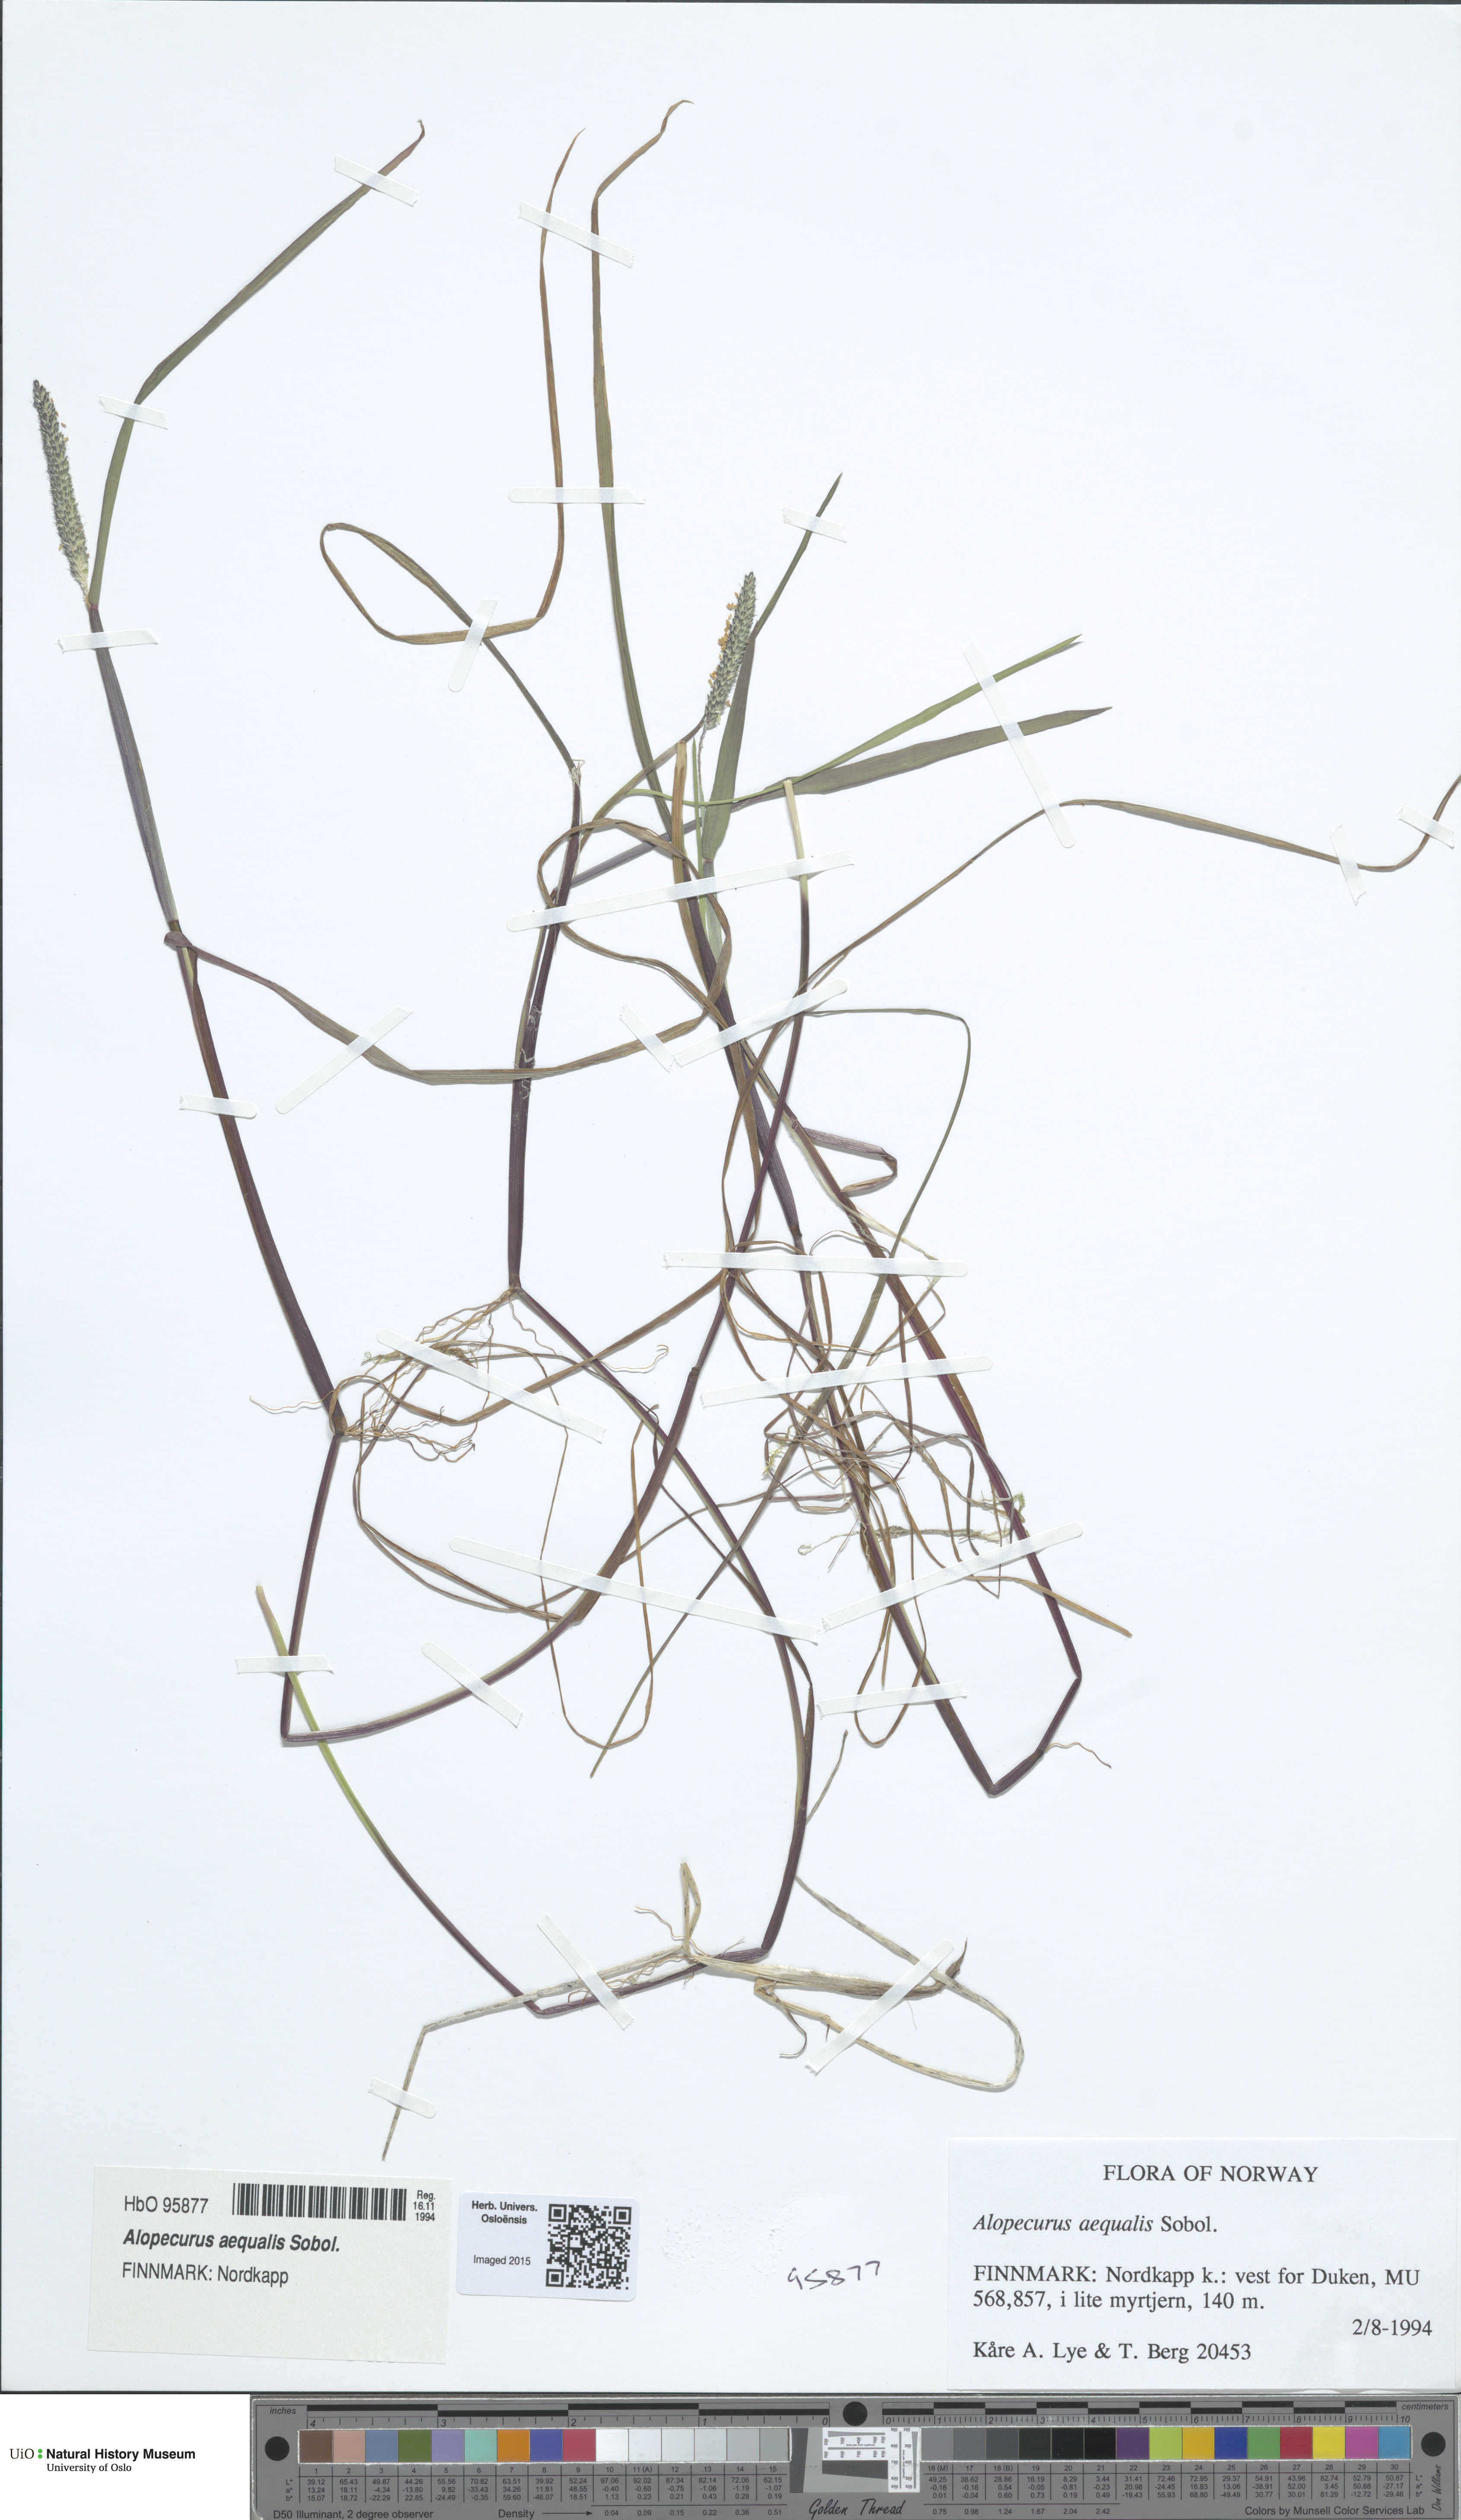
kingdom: Plantae
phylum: Tracheophyta
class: Liliopsida
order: Poales
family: Poaceae
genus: Alopecurus
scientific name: Alopecurus aequalis
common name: Orange foxtail
